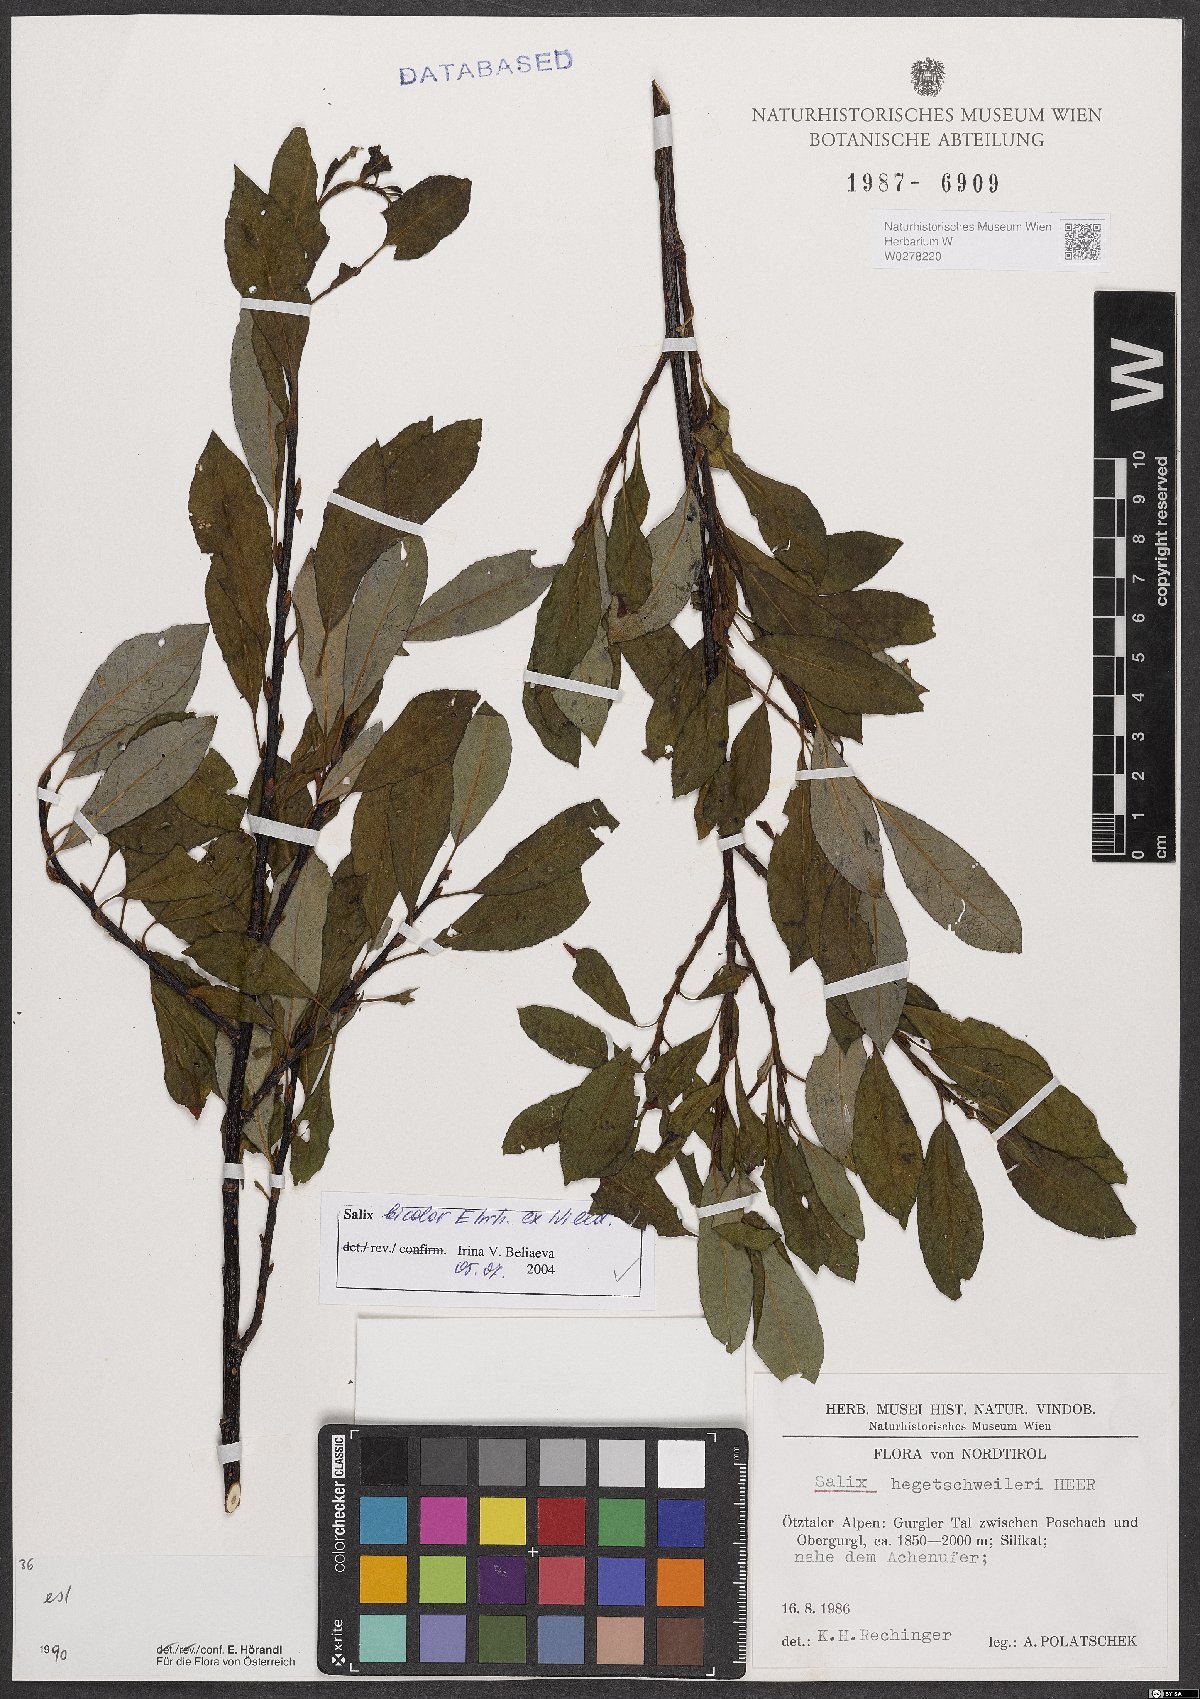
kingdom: Plantae
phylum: Tracheophyta
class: Magnoliopsida
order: Malpighiales
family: Salicaceae
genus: Salix
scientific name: Salix bicolor
